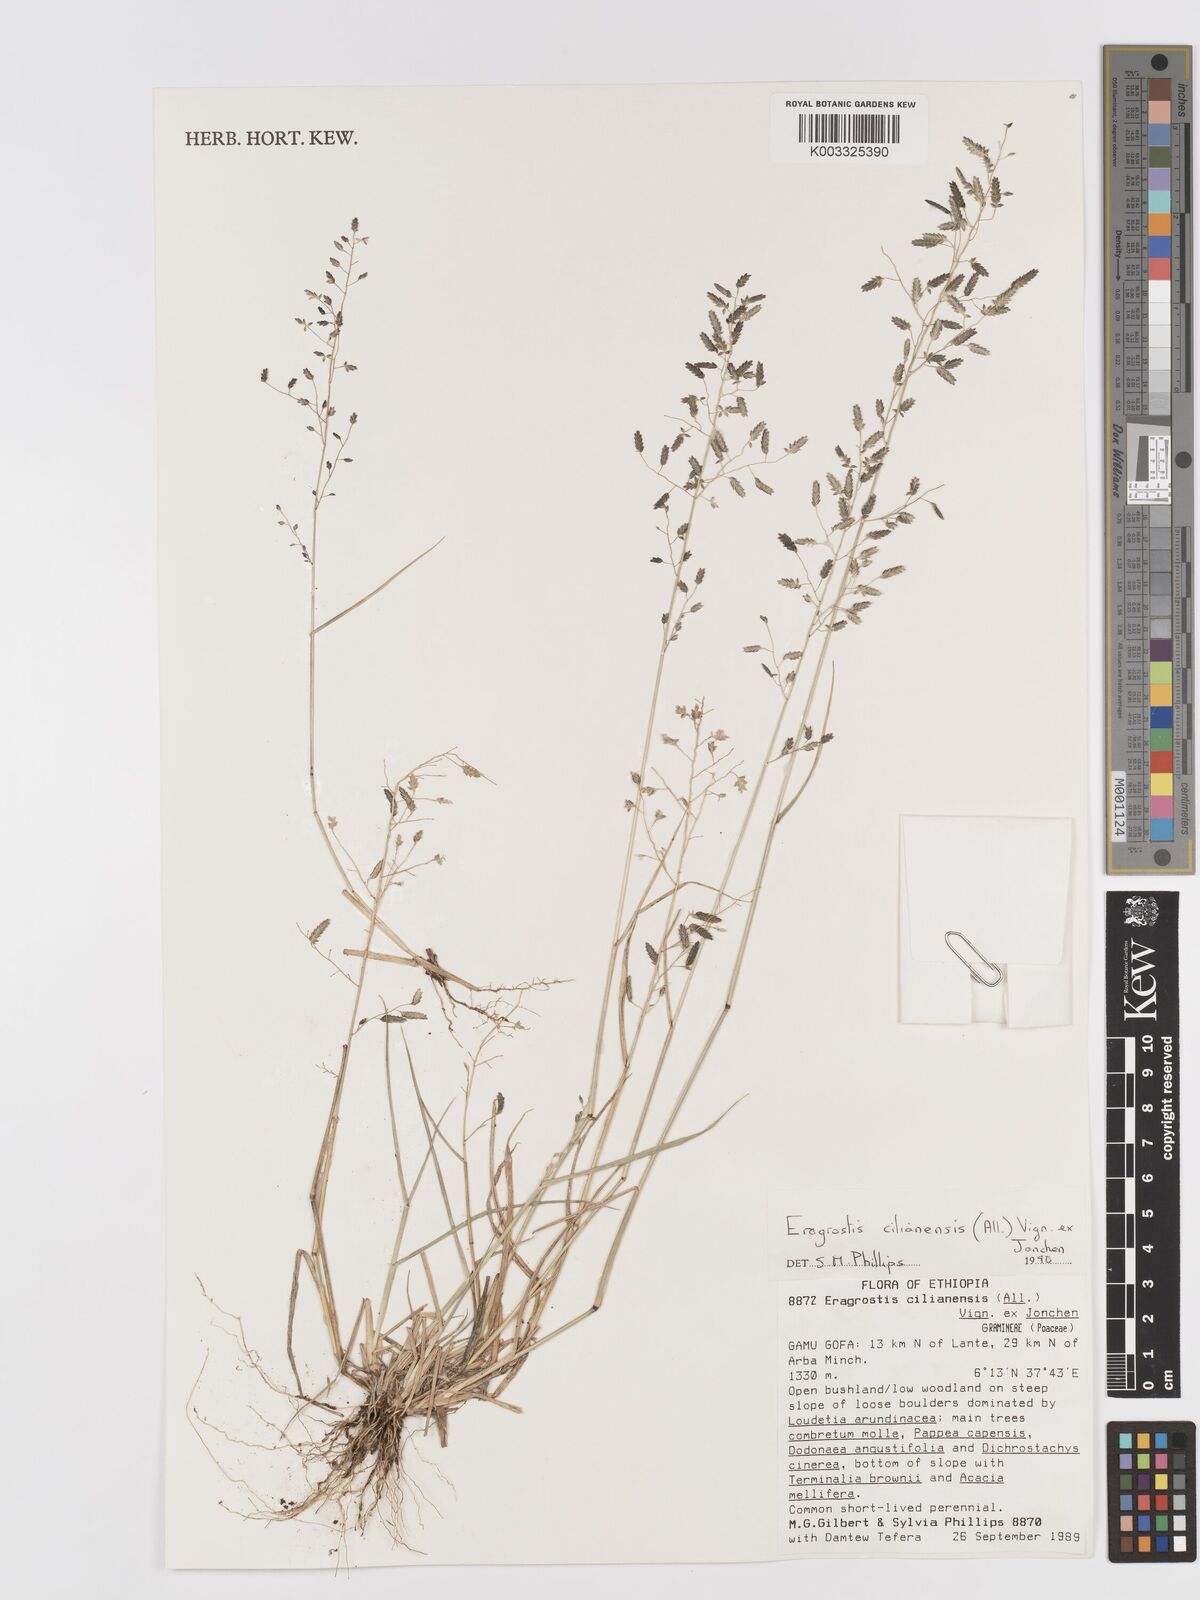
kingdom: Plantae
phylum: Tracheophyta
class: Liliopsida
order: Poales
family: Poaceae
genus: Eragrostis
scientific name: Eragrostis cilianensis
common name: Stinkgrass
